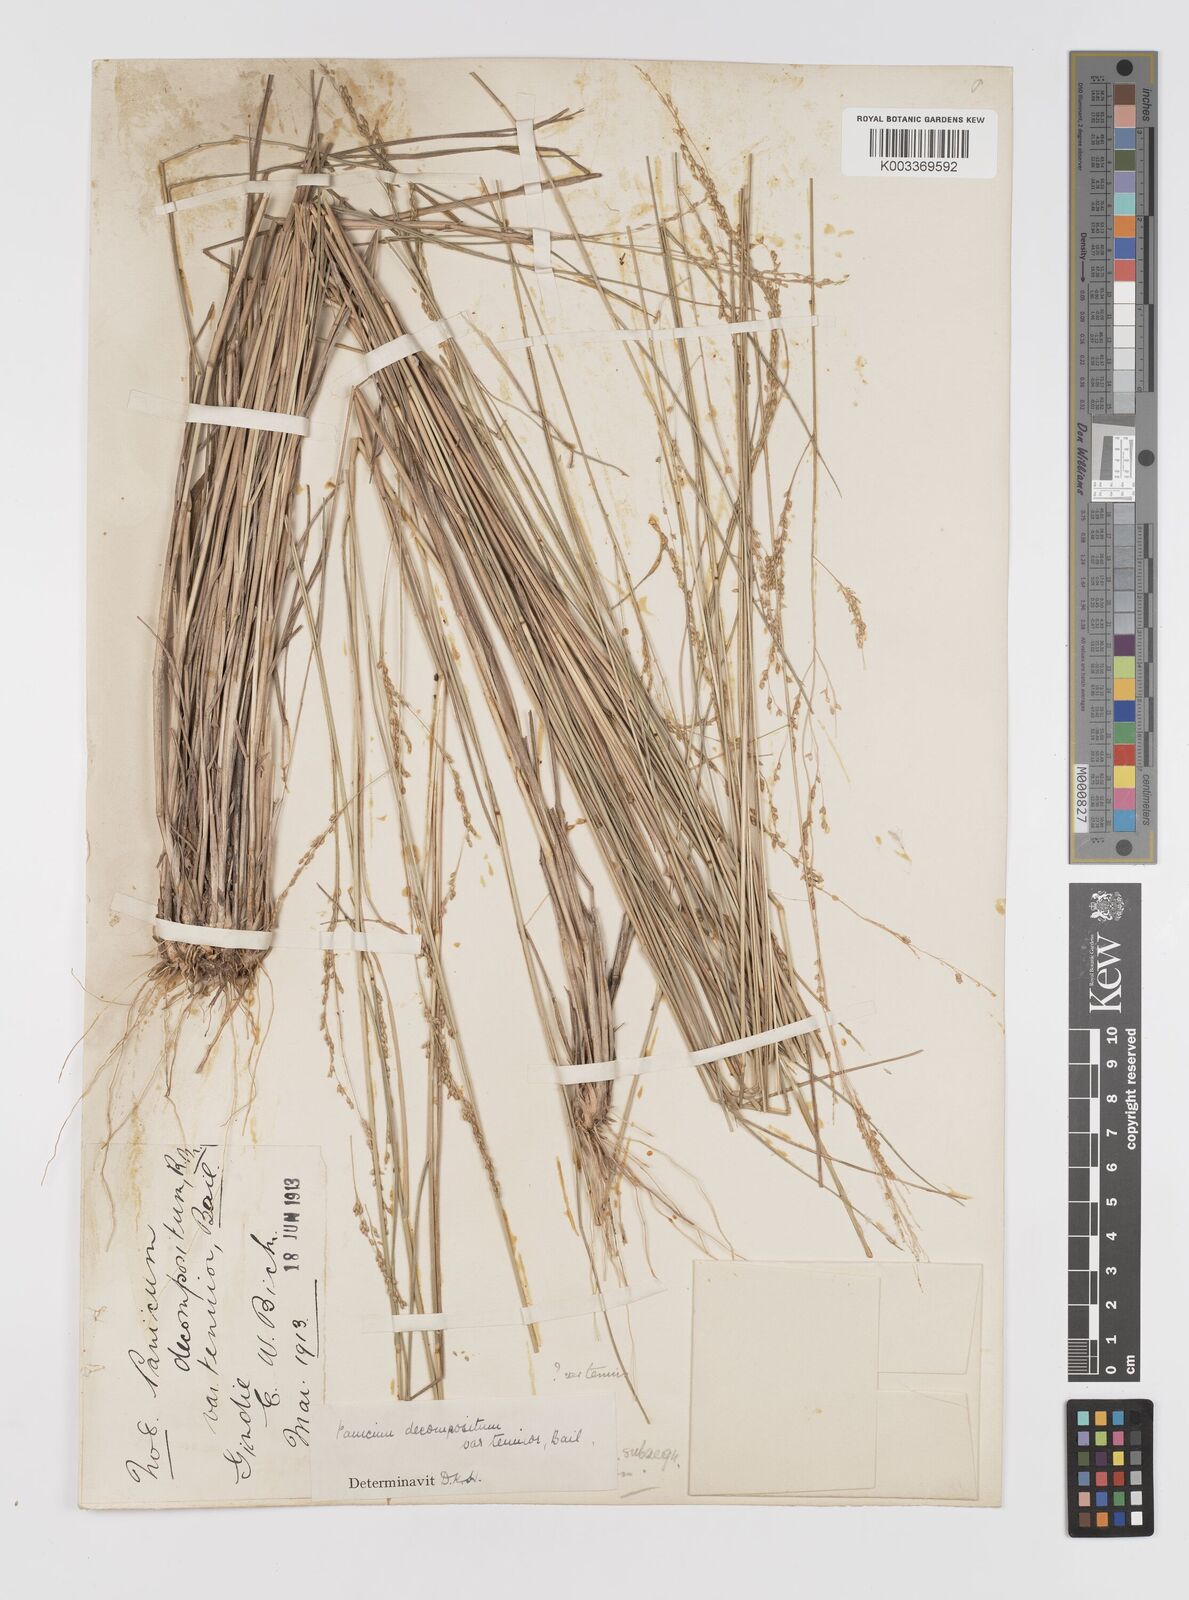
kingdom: Plantae
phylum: Tracheophyta
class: Liliopsida
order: Poales
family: Poaceae
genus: Panicum
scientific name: Panicum decompositum
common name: Australian millet
